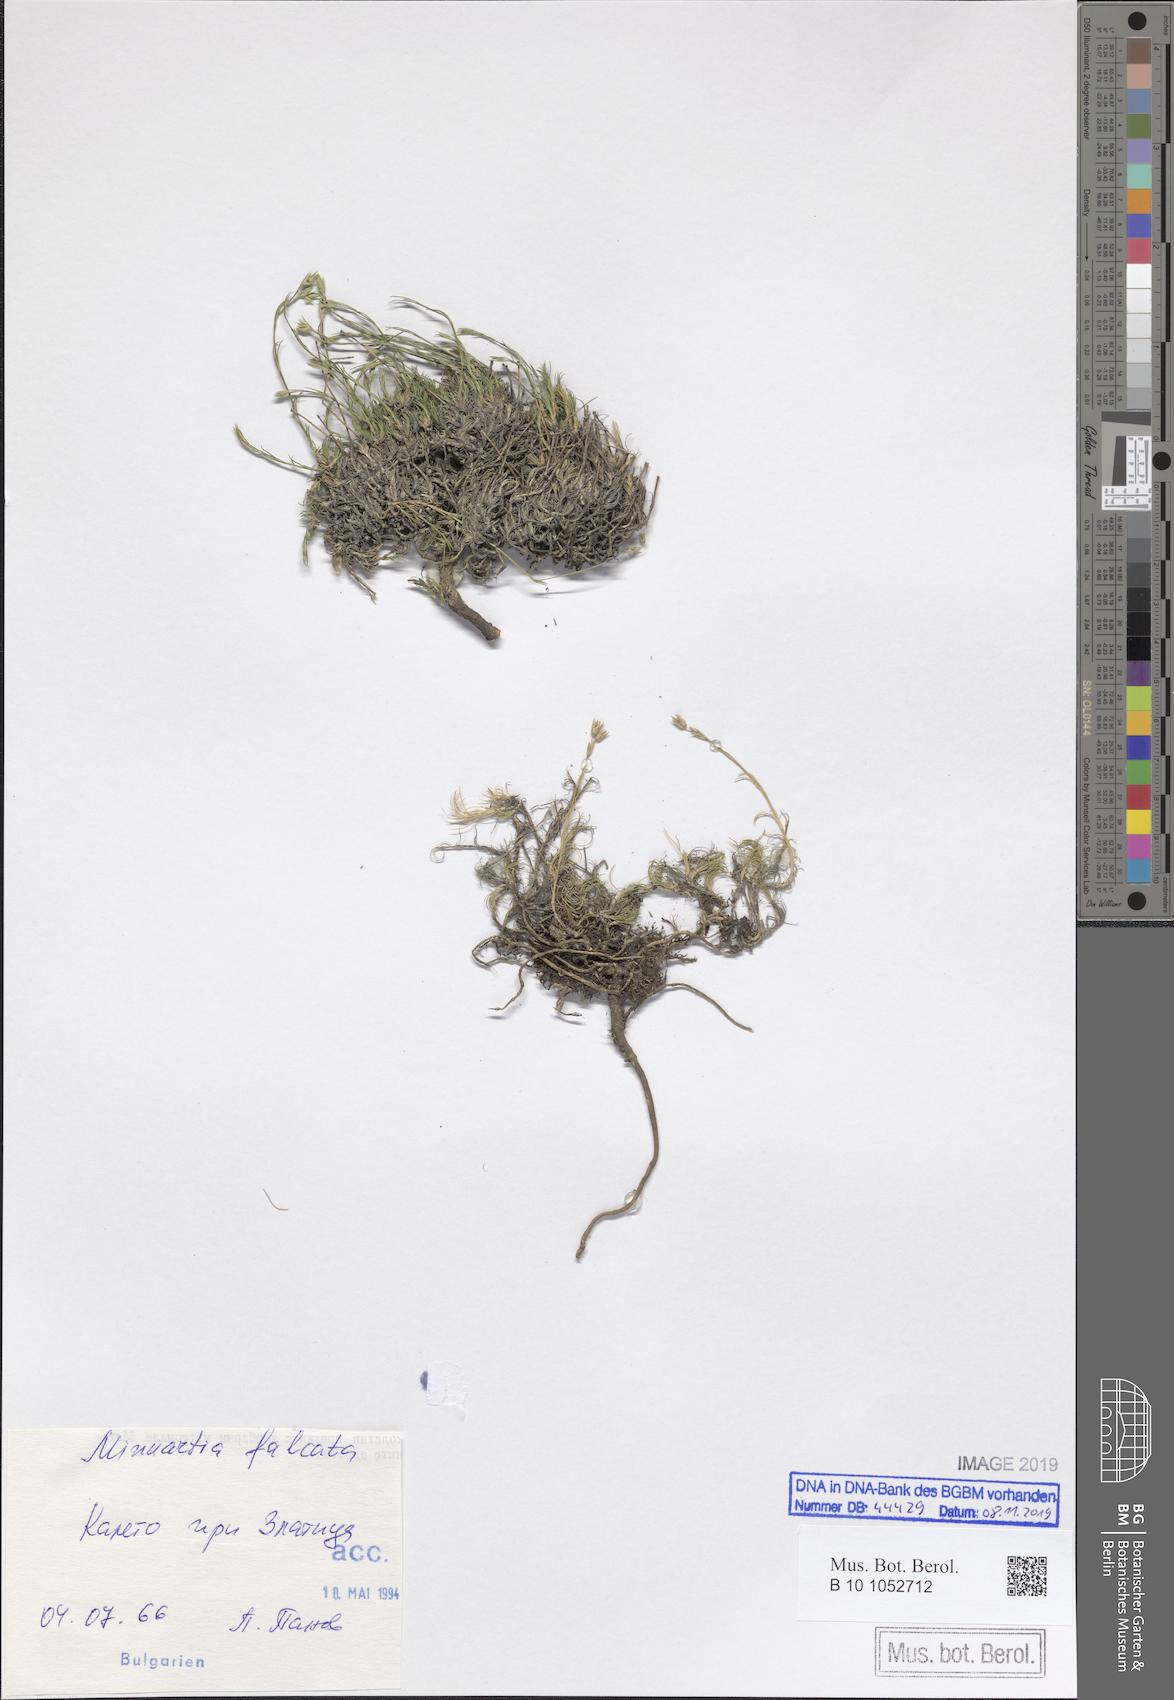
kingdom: Plantae
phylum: Tracheophyta
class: Magnoliopsida
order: Caryophyllales
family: Caryophyllaceae
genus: Minuartia
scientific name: Minuartia
